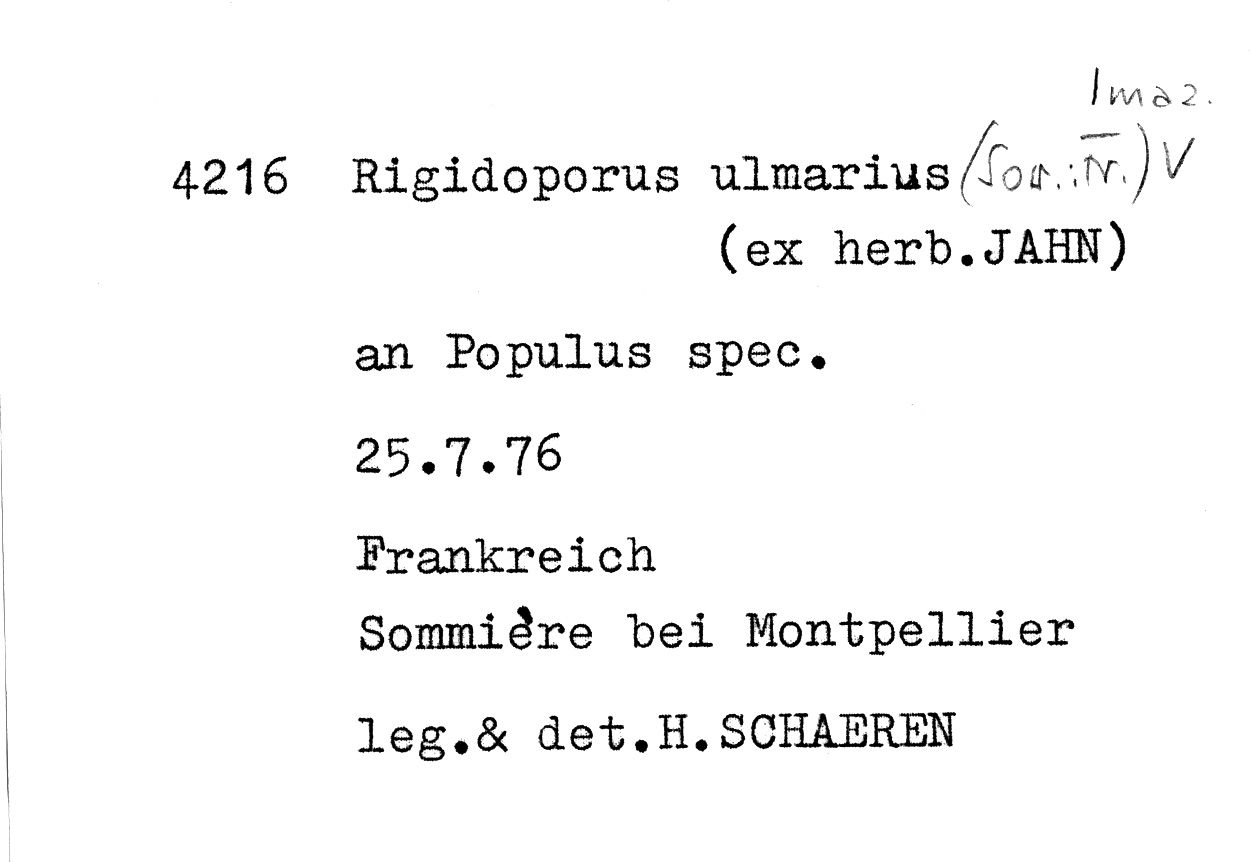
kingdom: Fungi
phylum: Basidiomycota
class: Agaricomycetes
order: Polyporales
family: Meripilaceae
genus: Rigidoporus
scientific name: Rigidoporus ulmarius
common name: Giant elm bracket
